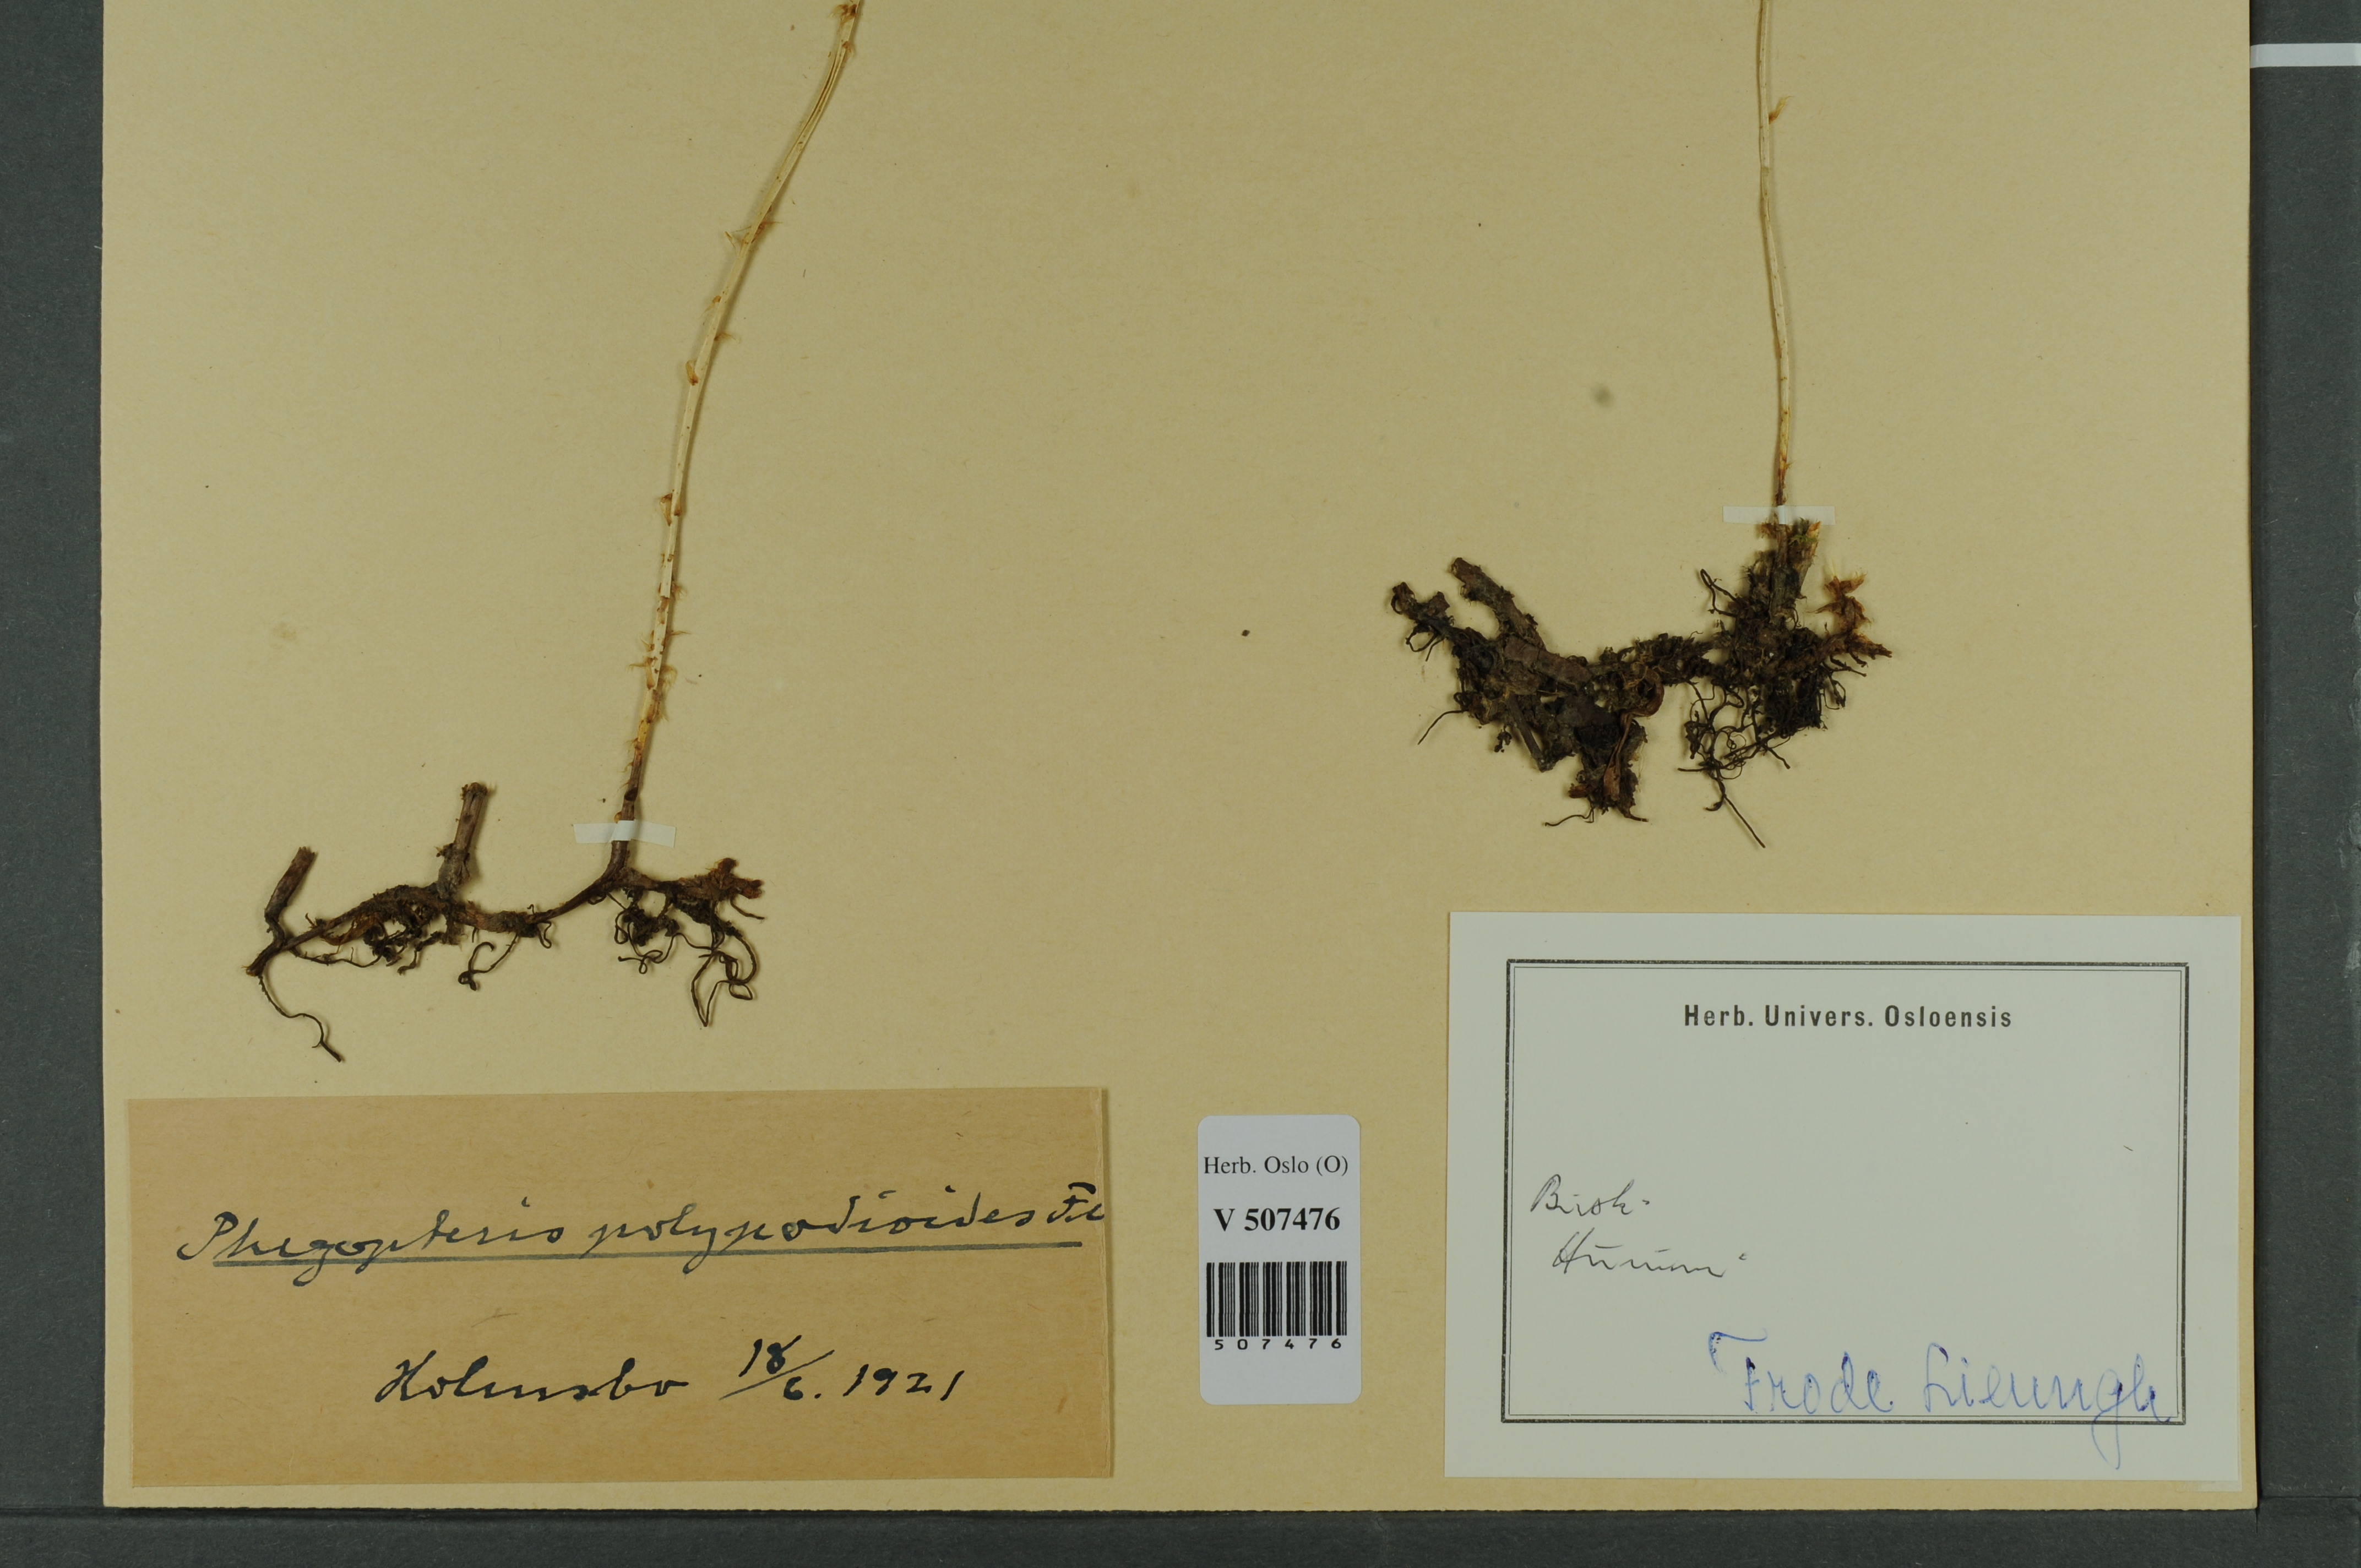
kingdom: Plantae
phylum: Tracheophyta
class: Polypodiopsida
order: Polypodiales
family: Thelypteridaceae
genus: Phegopteris
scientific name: Phegopteris connectilis
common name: Beech fern
